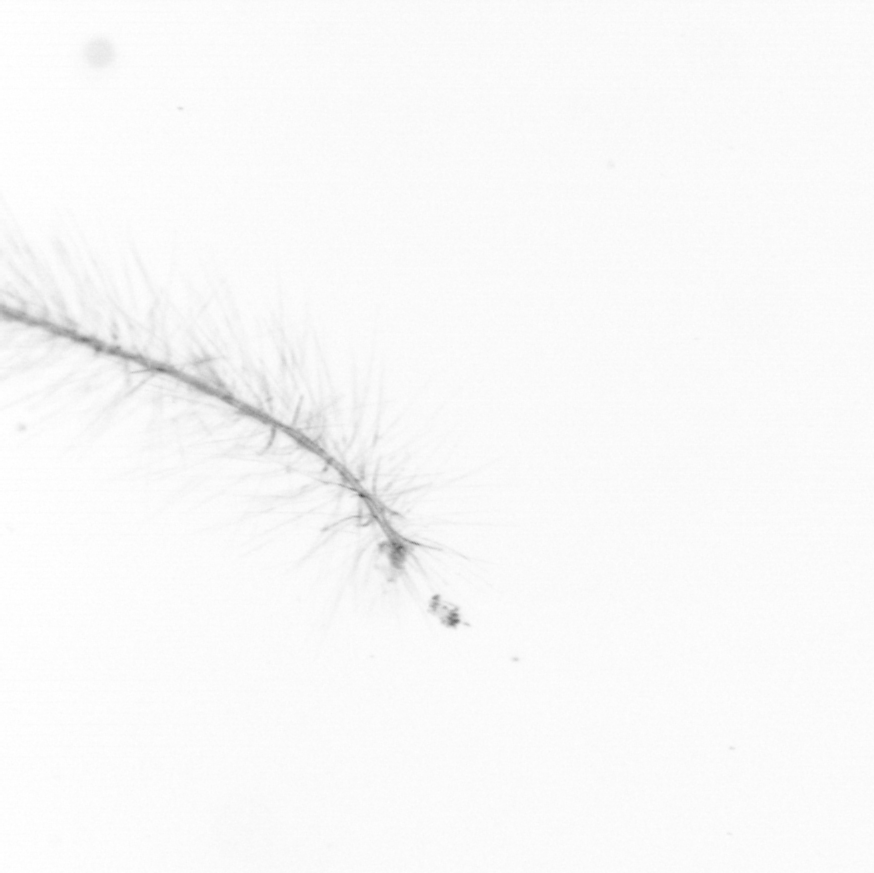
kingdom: Chromista
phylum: Ochrophyta
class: Bacillariophyceae
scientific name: Bacillariophyceae
